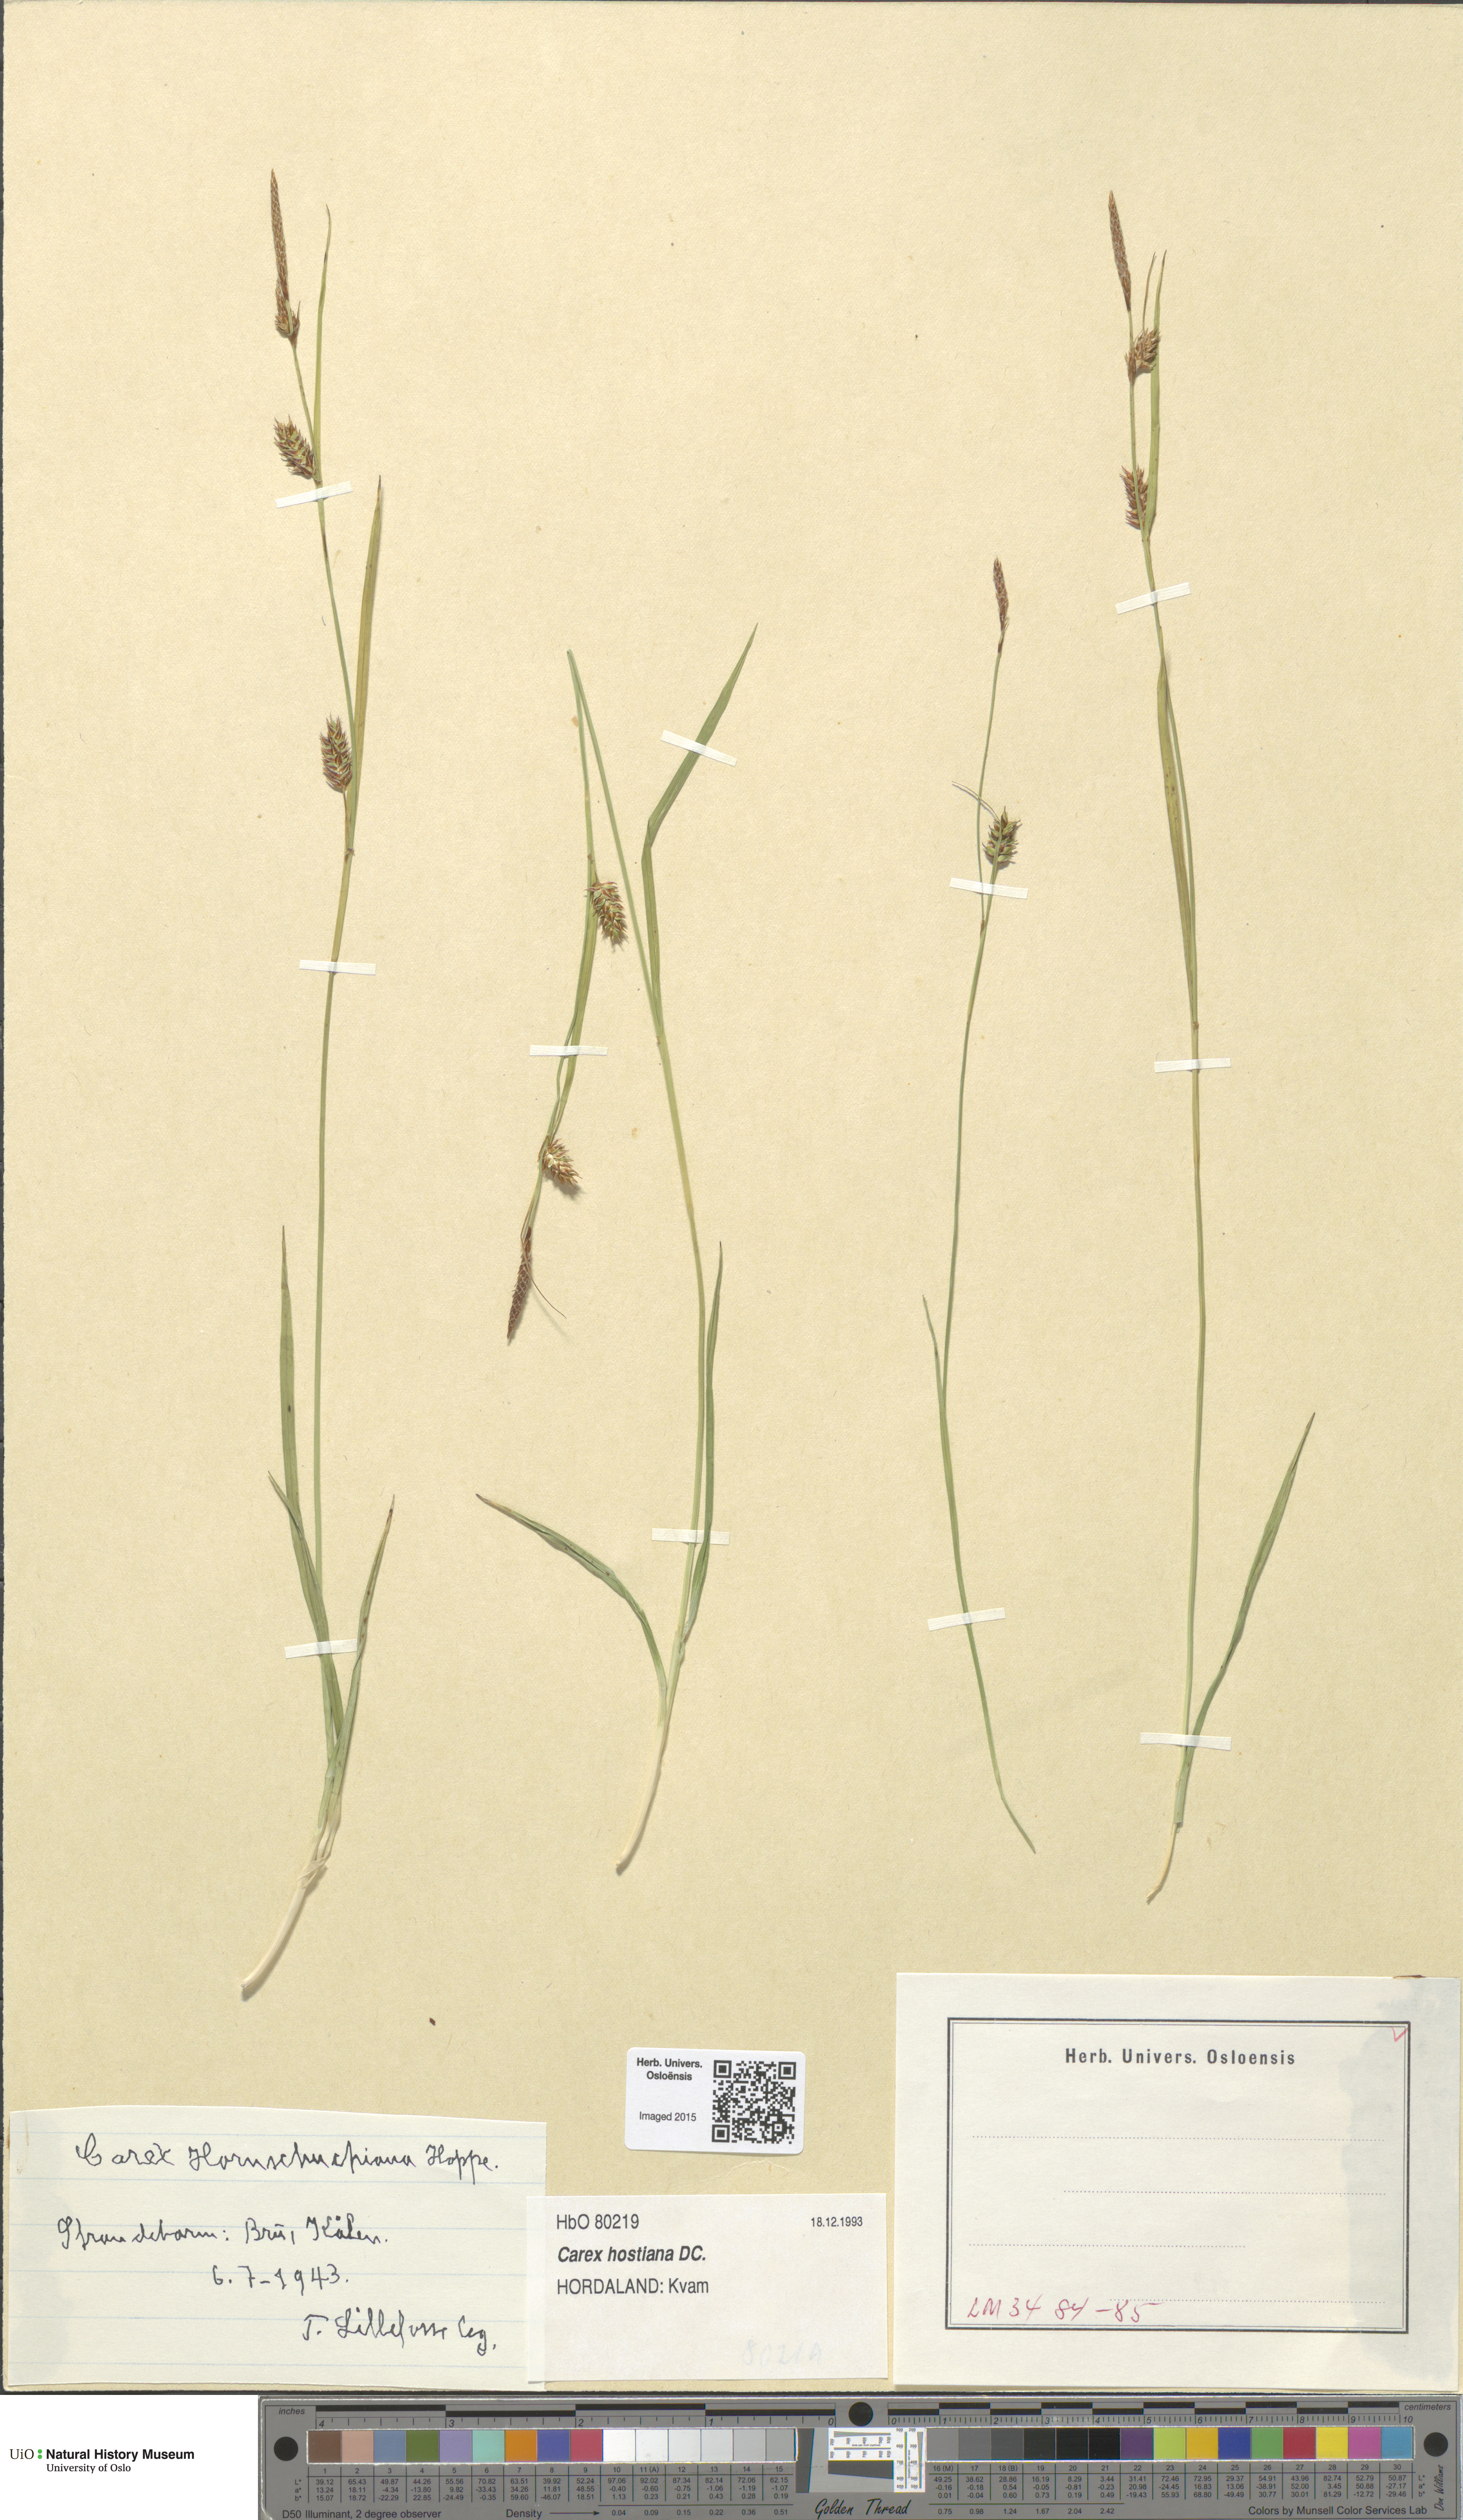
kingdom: Plantae
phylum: Tracheophyta
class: Liliopsida
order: Poales
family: Cyperaceae
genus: Carex
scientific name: Carex hostiana
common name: Tawny sedge
